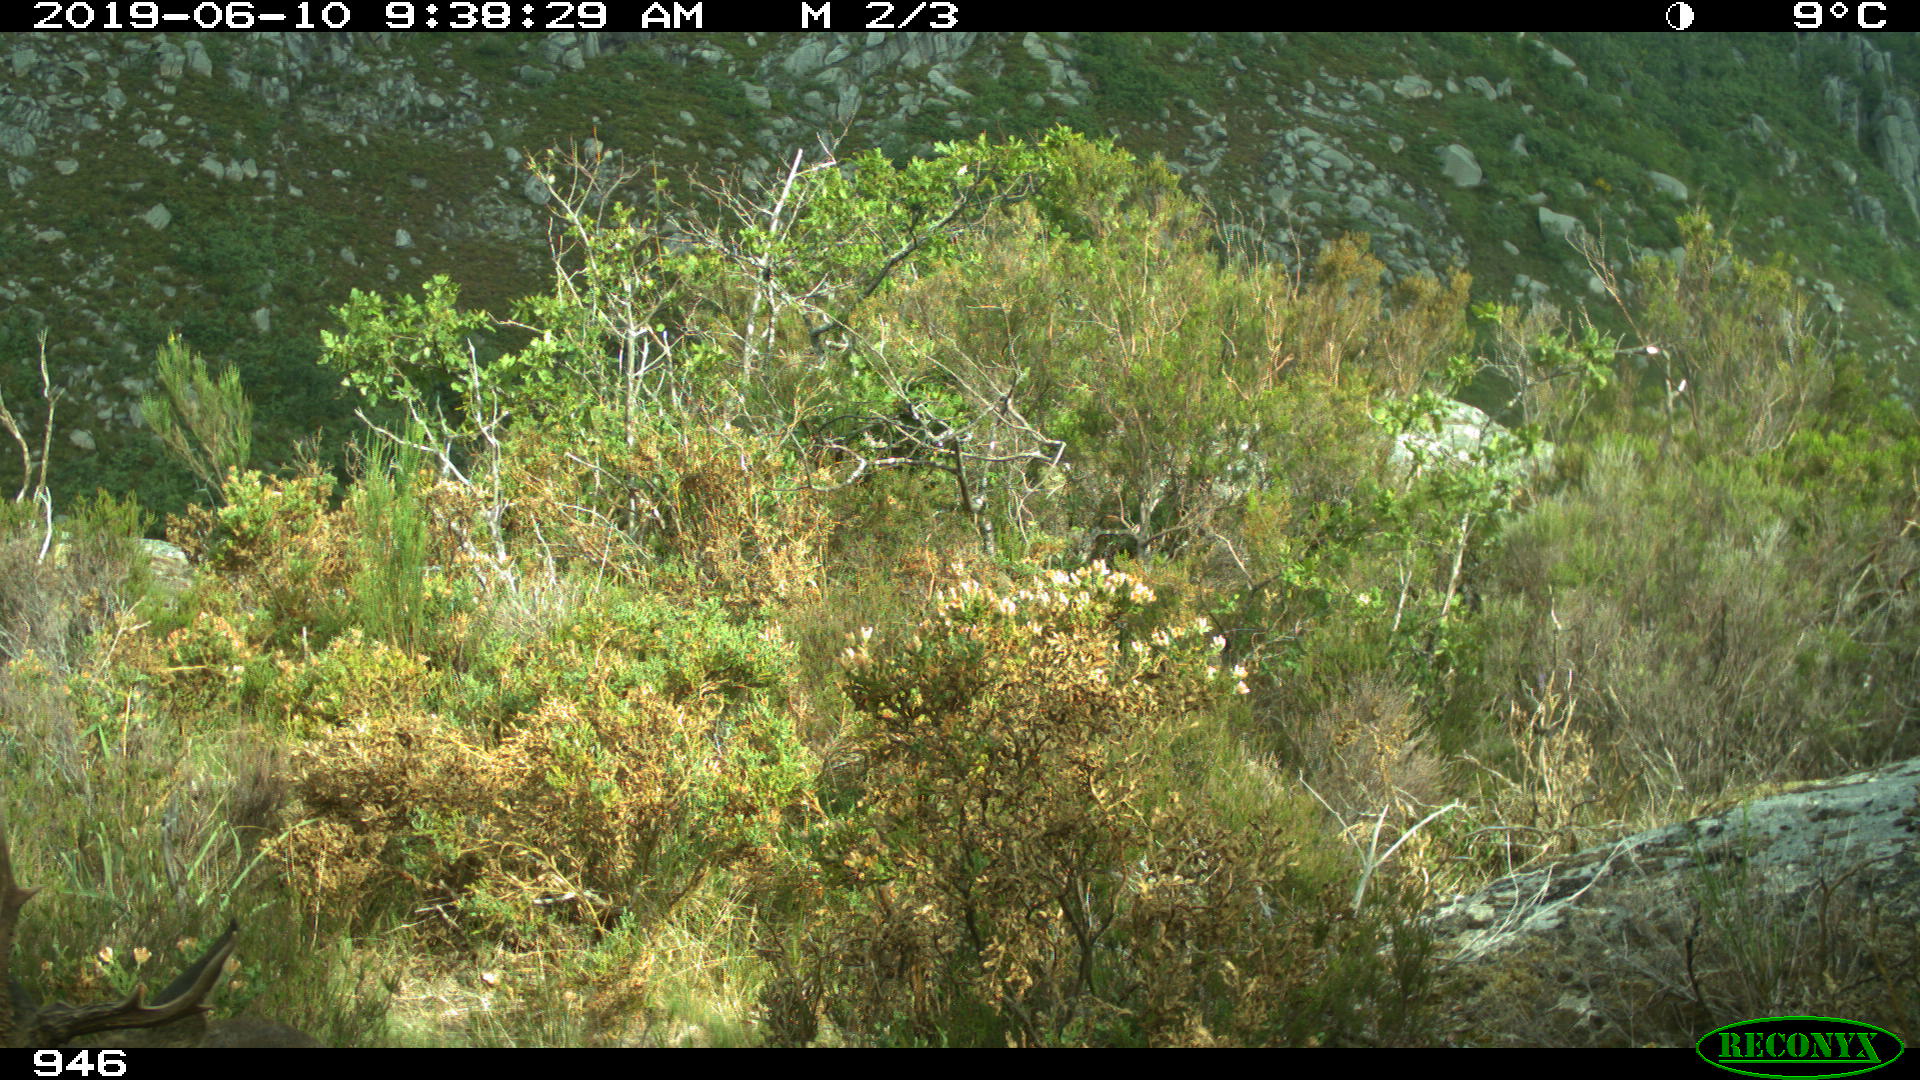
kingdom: Animalia
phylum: Chordata
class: Mammalia
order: Artiodactyla
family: Cervidae
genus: Capreolus
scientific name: Capreolus capreolus
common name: Western roe deer
